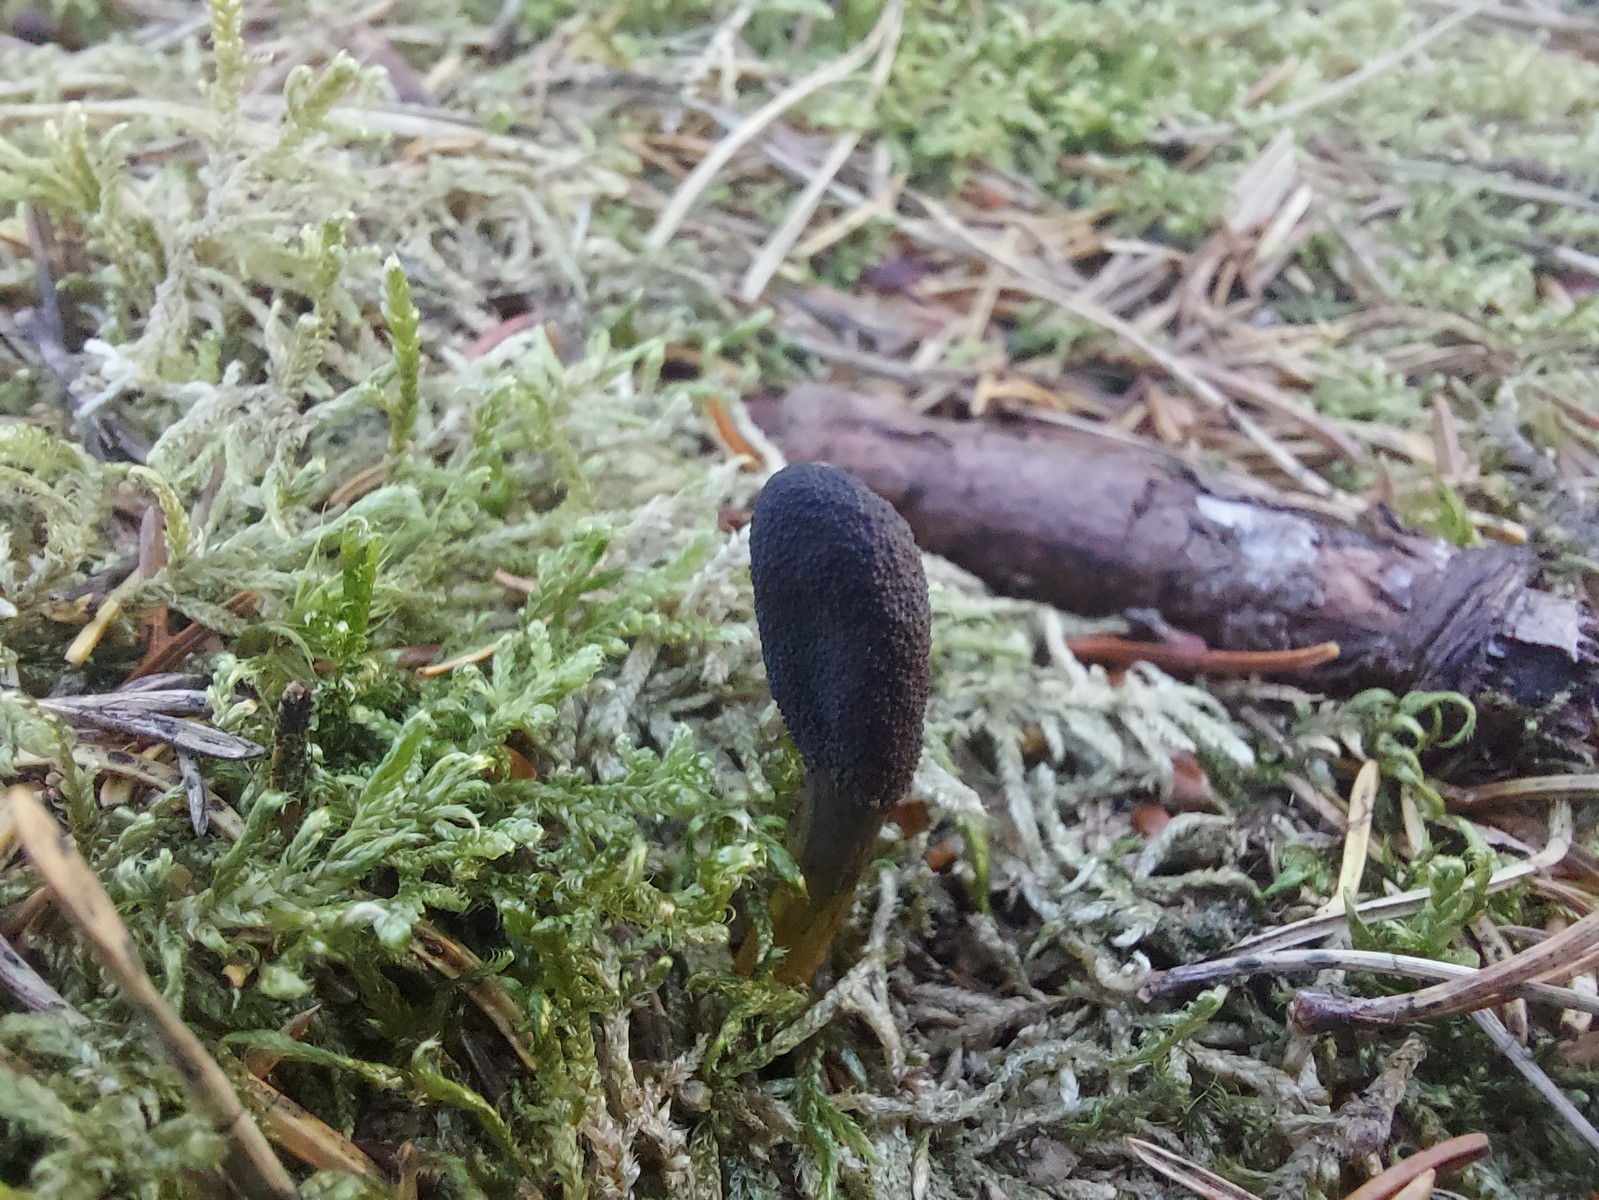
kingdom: Fungi
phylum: Ascomycota
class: Sordariomycetes
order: Hypocreales
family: Ophiocordycipitaceae
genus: Tolypocladium
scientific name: Tolypocladium ophioglossoides
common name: slank snyltekølle
